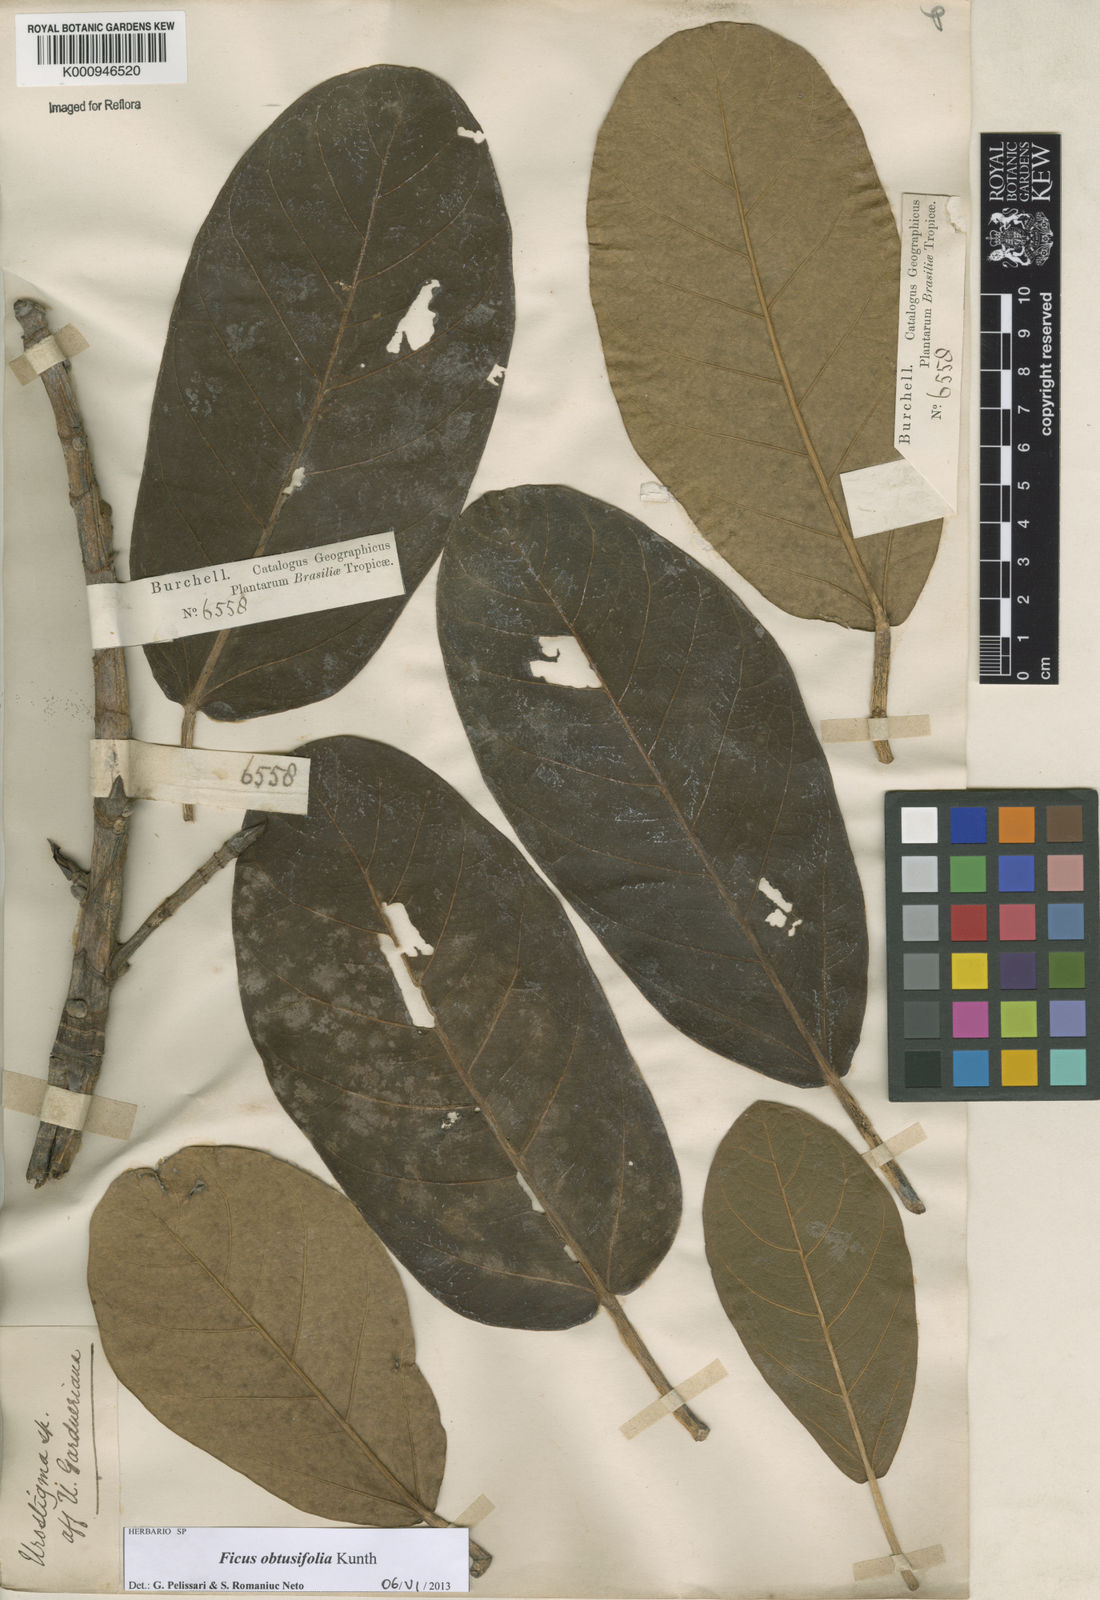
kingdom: Plantae
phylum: Tracheophyta
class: Magnoliopsida
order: Rosales
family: Moraceae
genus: Ficus
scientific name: Ficus obtusifolia
